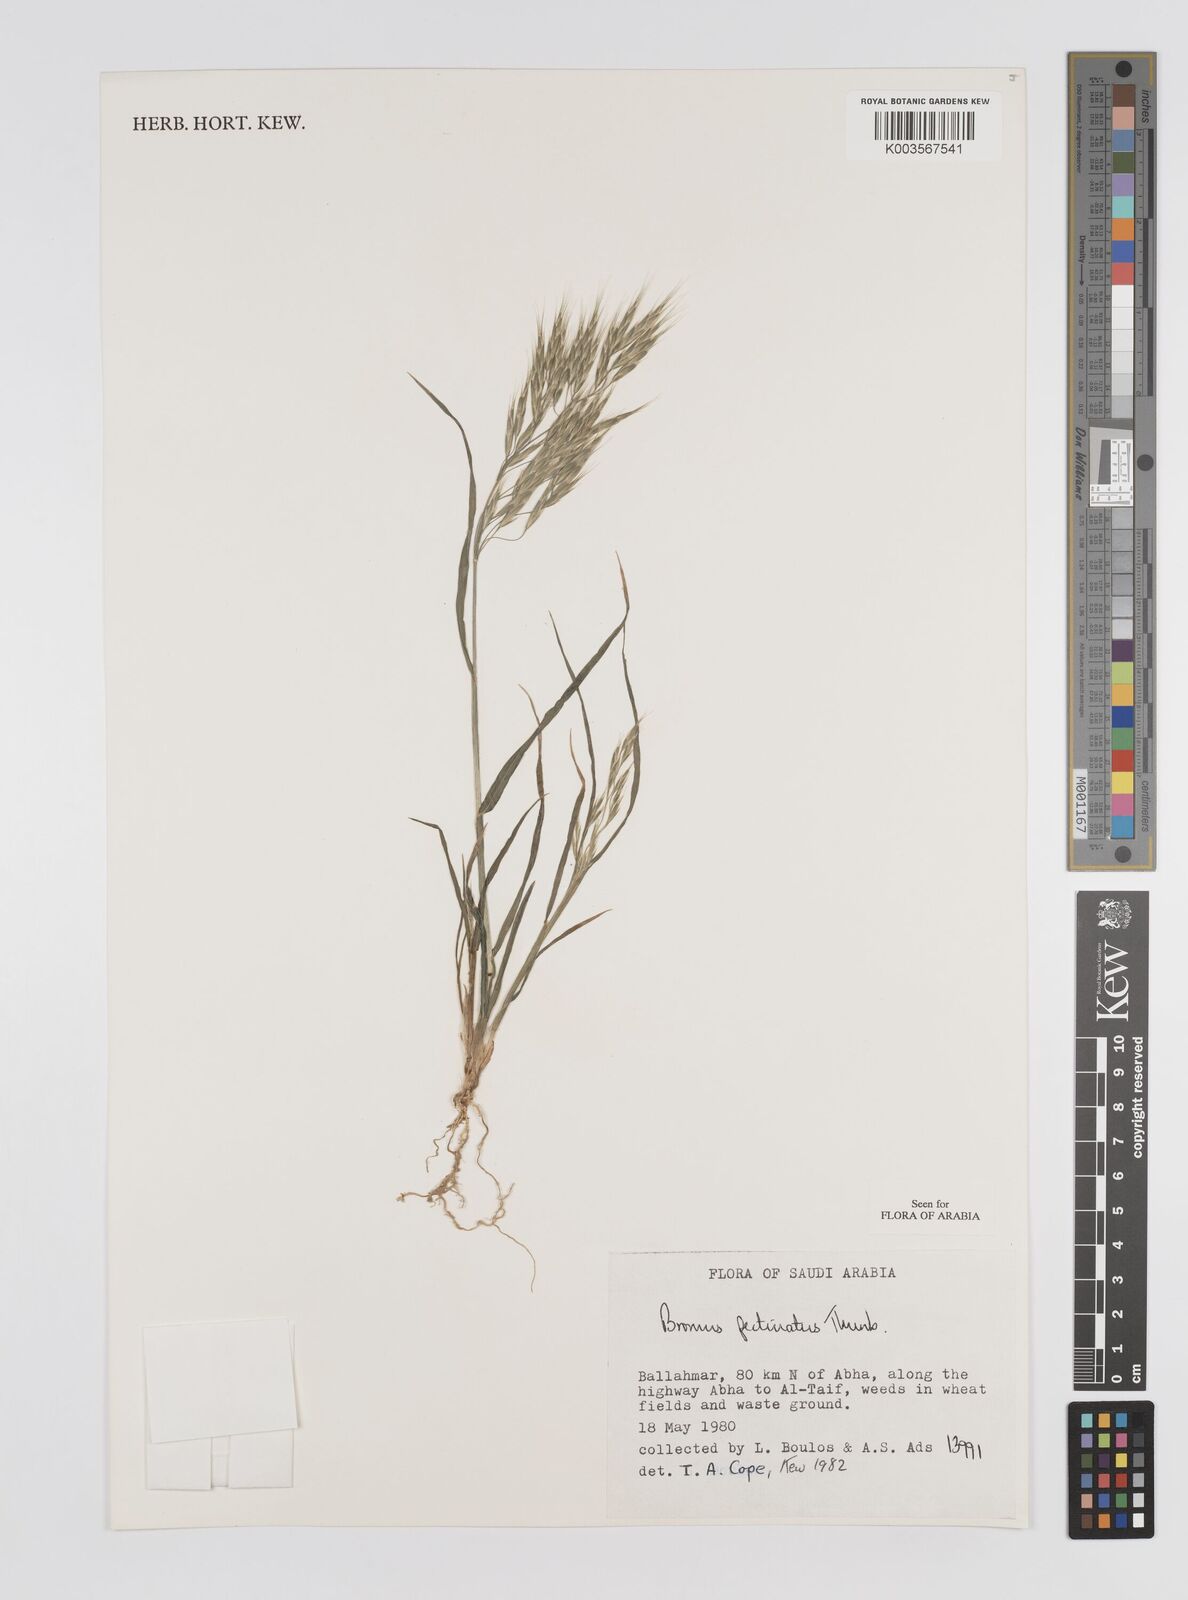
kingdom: Plantae
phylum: Tracheophyta
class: Liliopsida
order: Poales
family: Poaceae
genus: Bromus
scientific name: Bromus pectinatus
